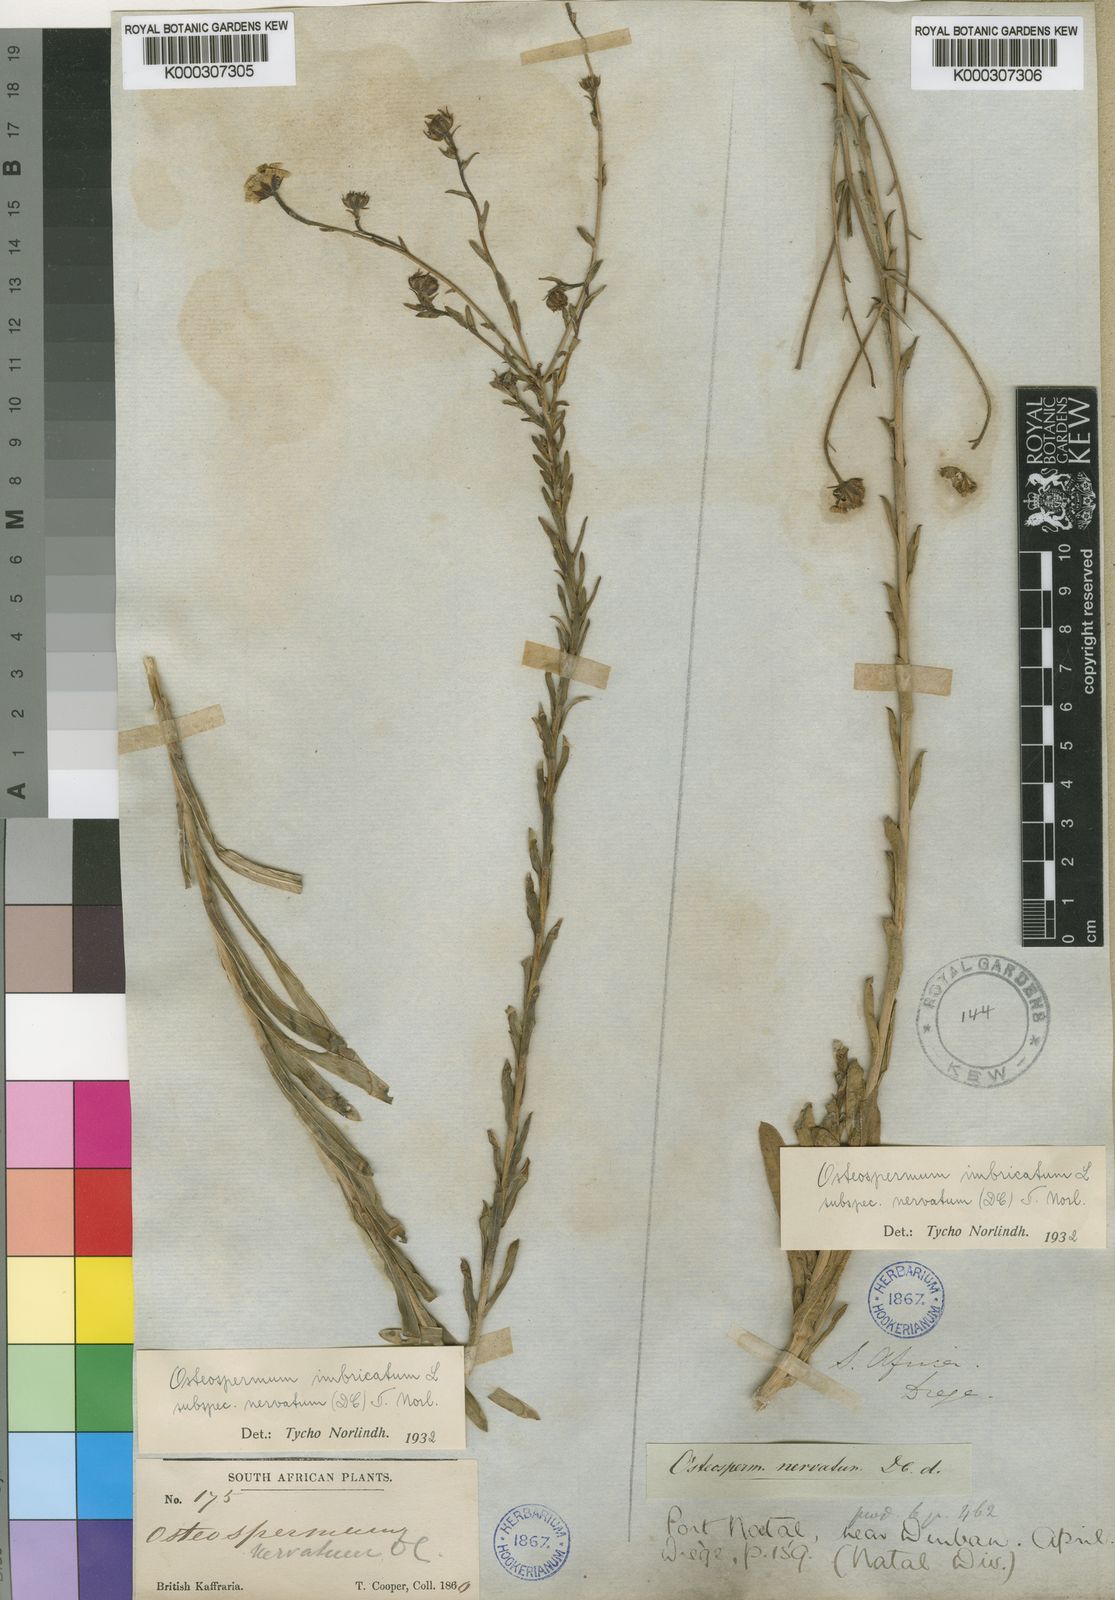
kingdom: Plantae
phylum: Tracheophyta
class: Magnoliopsida
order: Asterales
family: Asteraceae
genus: Osteospermum
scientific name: Osteospermum imbricatum
